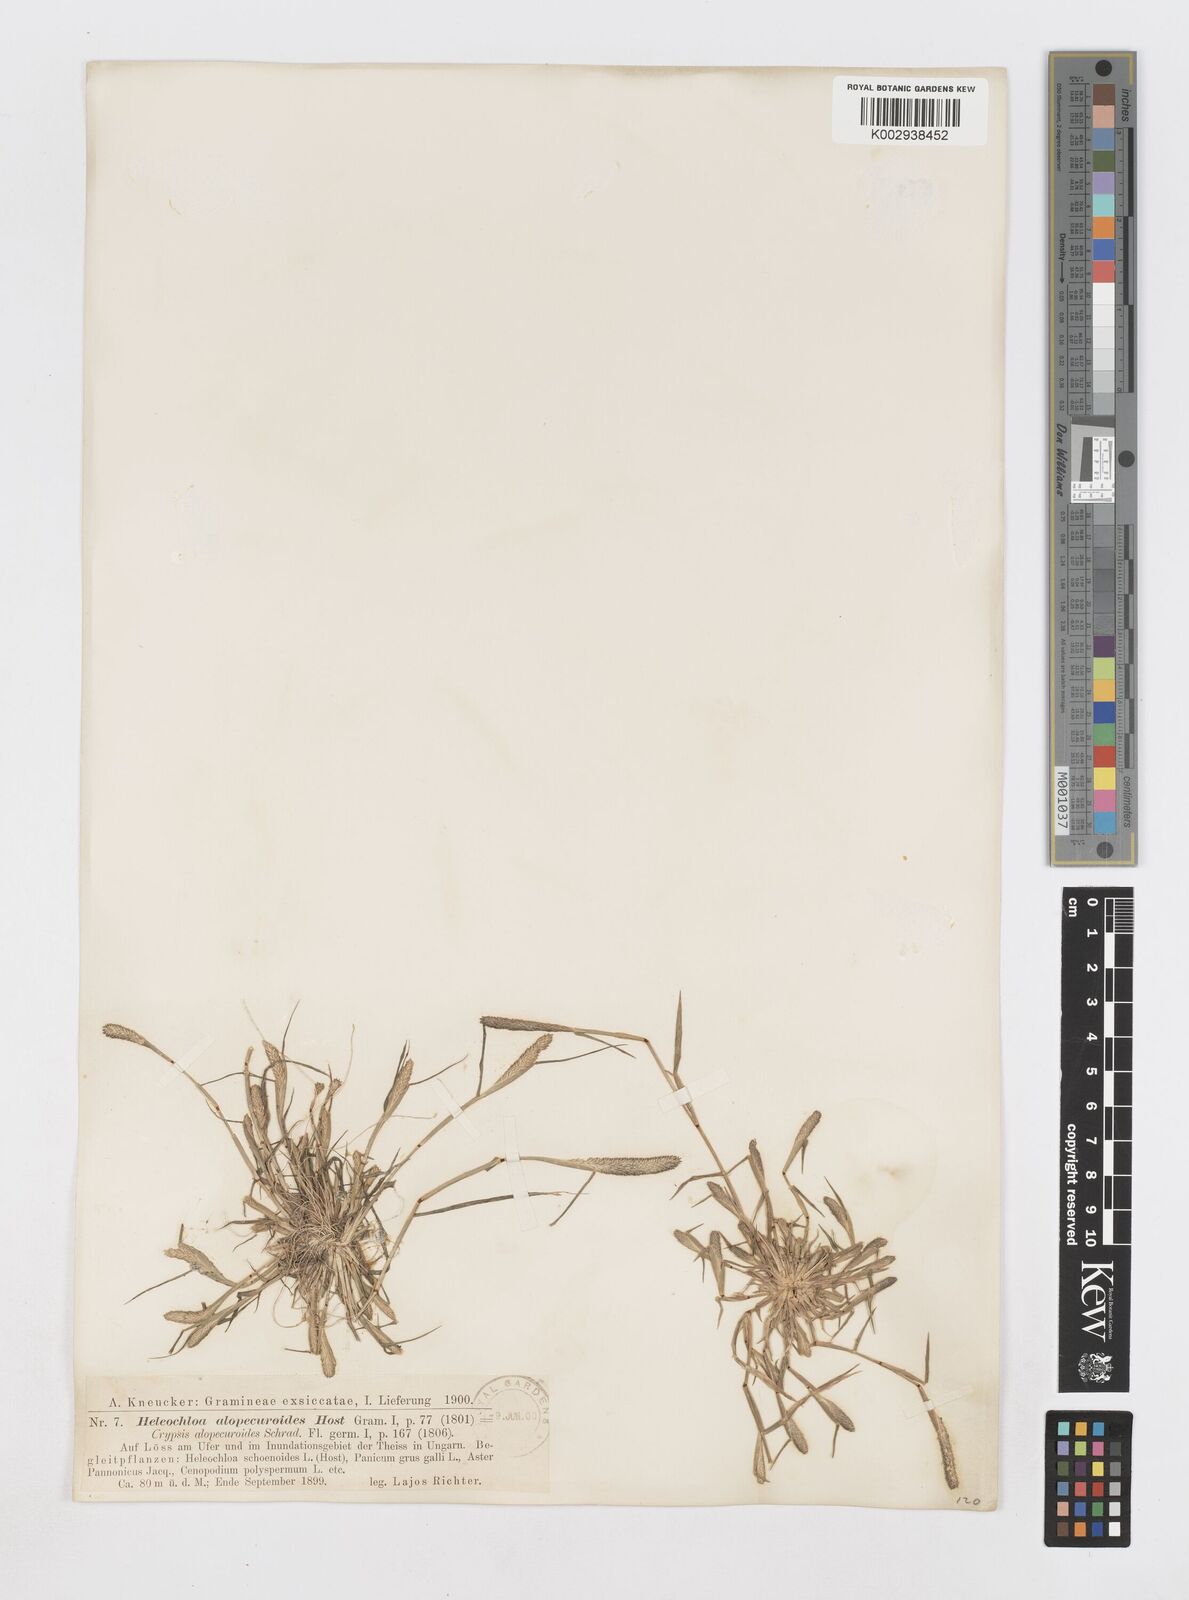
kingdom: Plantae
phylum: Tracheophyta
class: Liliopsida
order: Poales
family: Poaceae
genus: Sporobolus
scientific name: Sporobolus alopecuroides
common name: Foxtail pricklegrass
